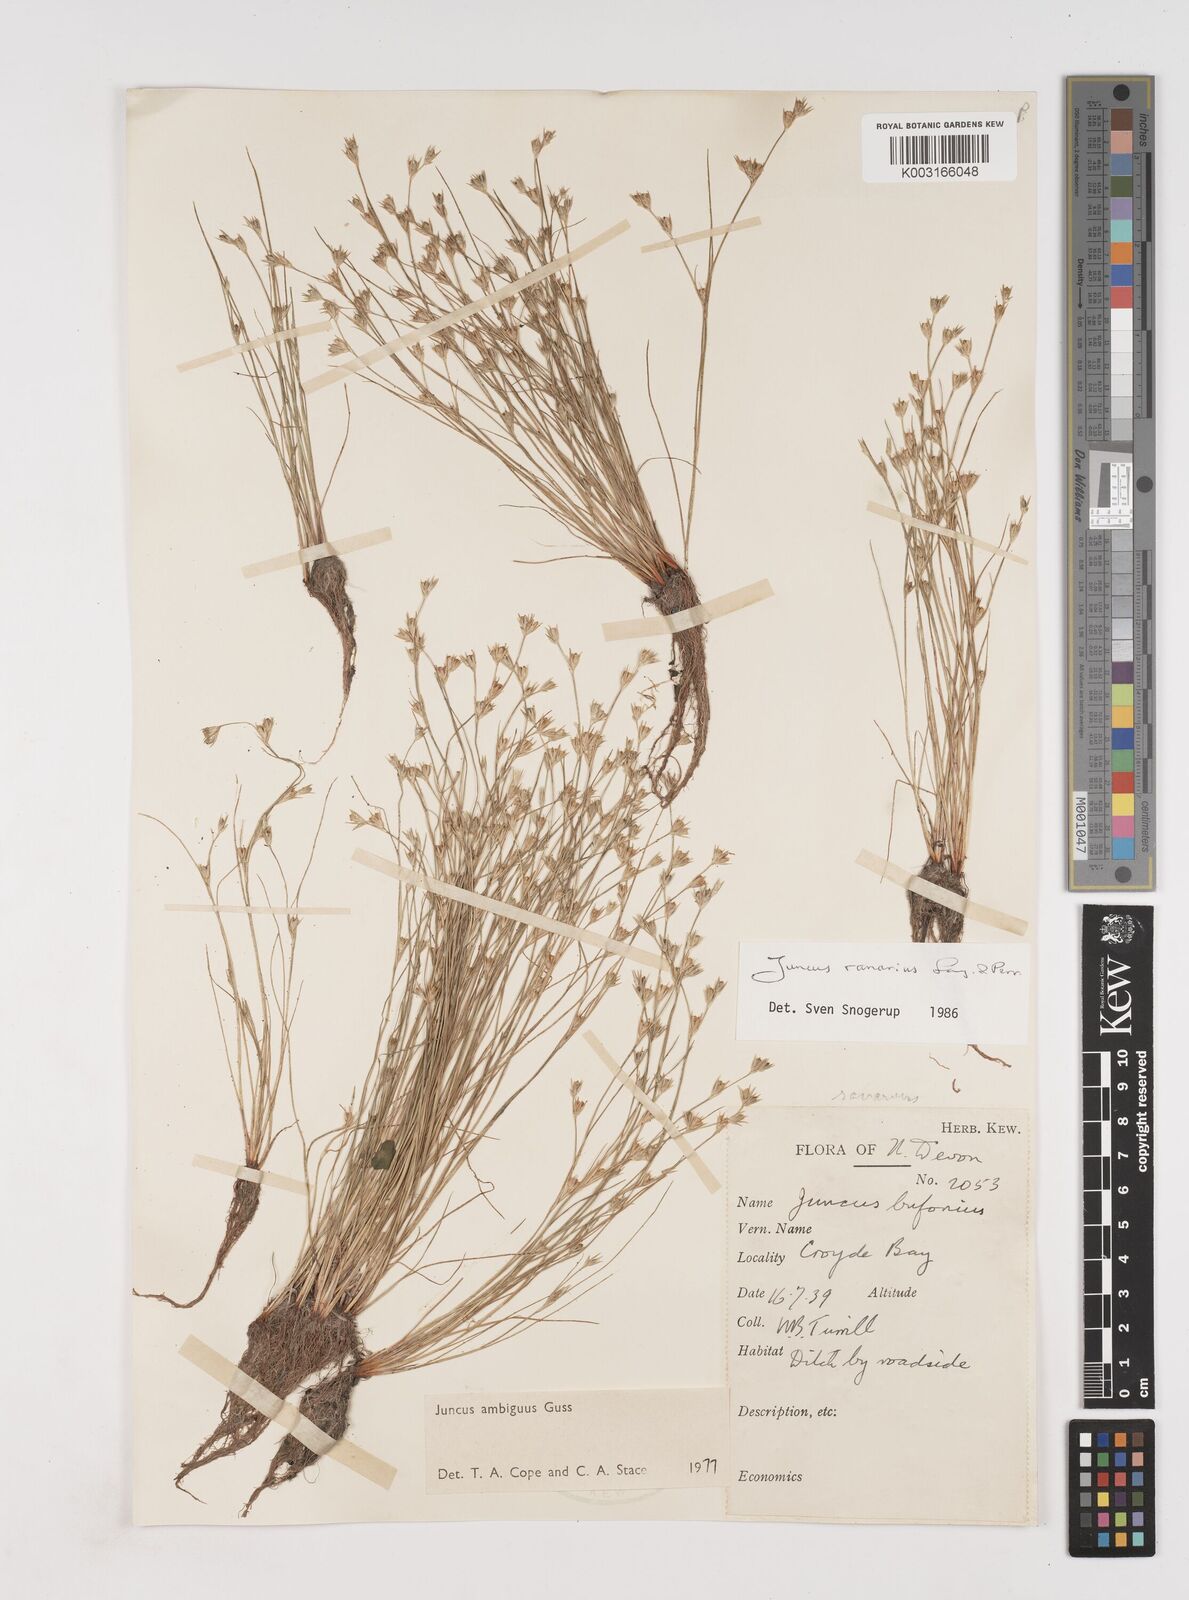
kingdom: Plantae
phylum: Tracheophyta
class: Liliopsida
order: Poales
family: Juncaceae
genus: Juncus
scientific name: Juncus hybridus
